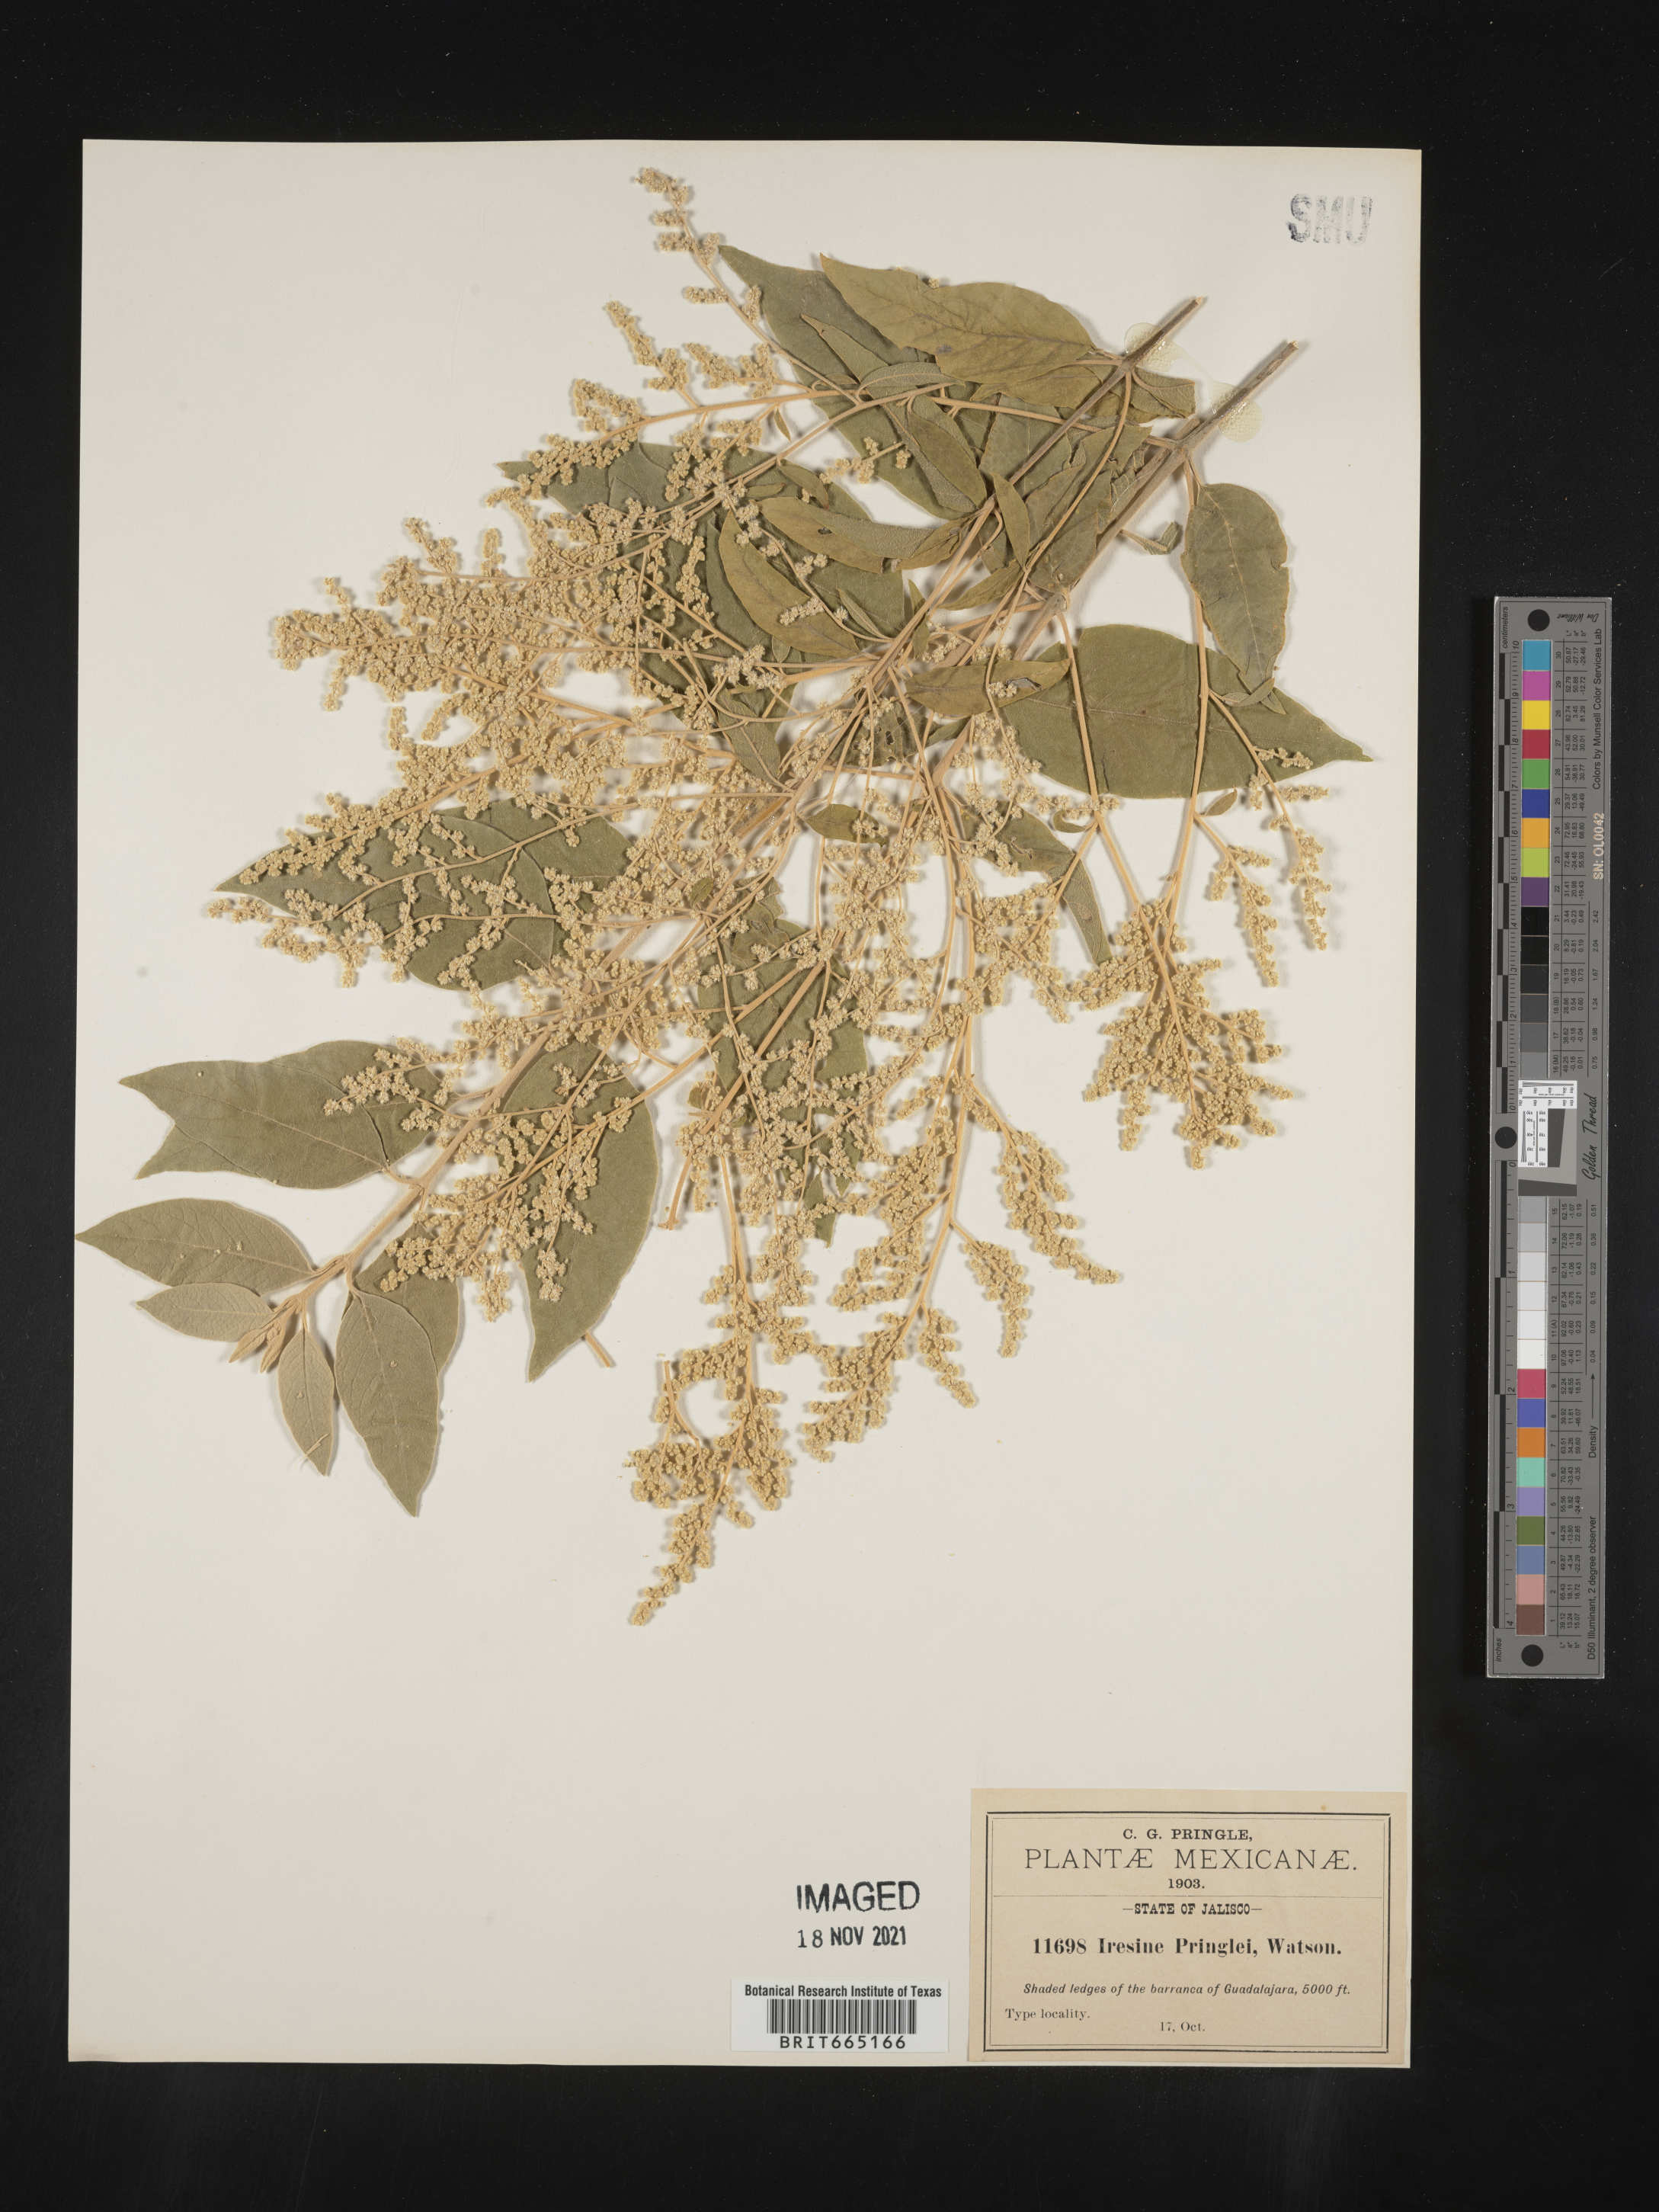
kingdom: Plantae
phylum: Tracheophyta
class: Magnoliopsida
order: Caryophyllales
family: Amaranthaceae
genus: Iresine
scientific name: Iresine
